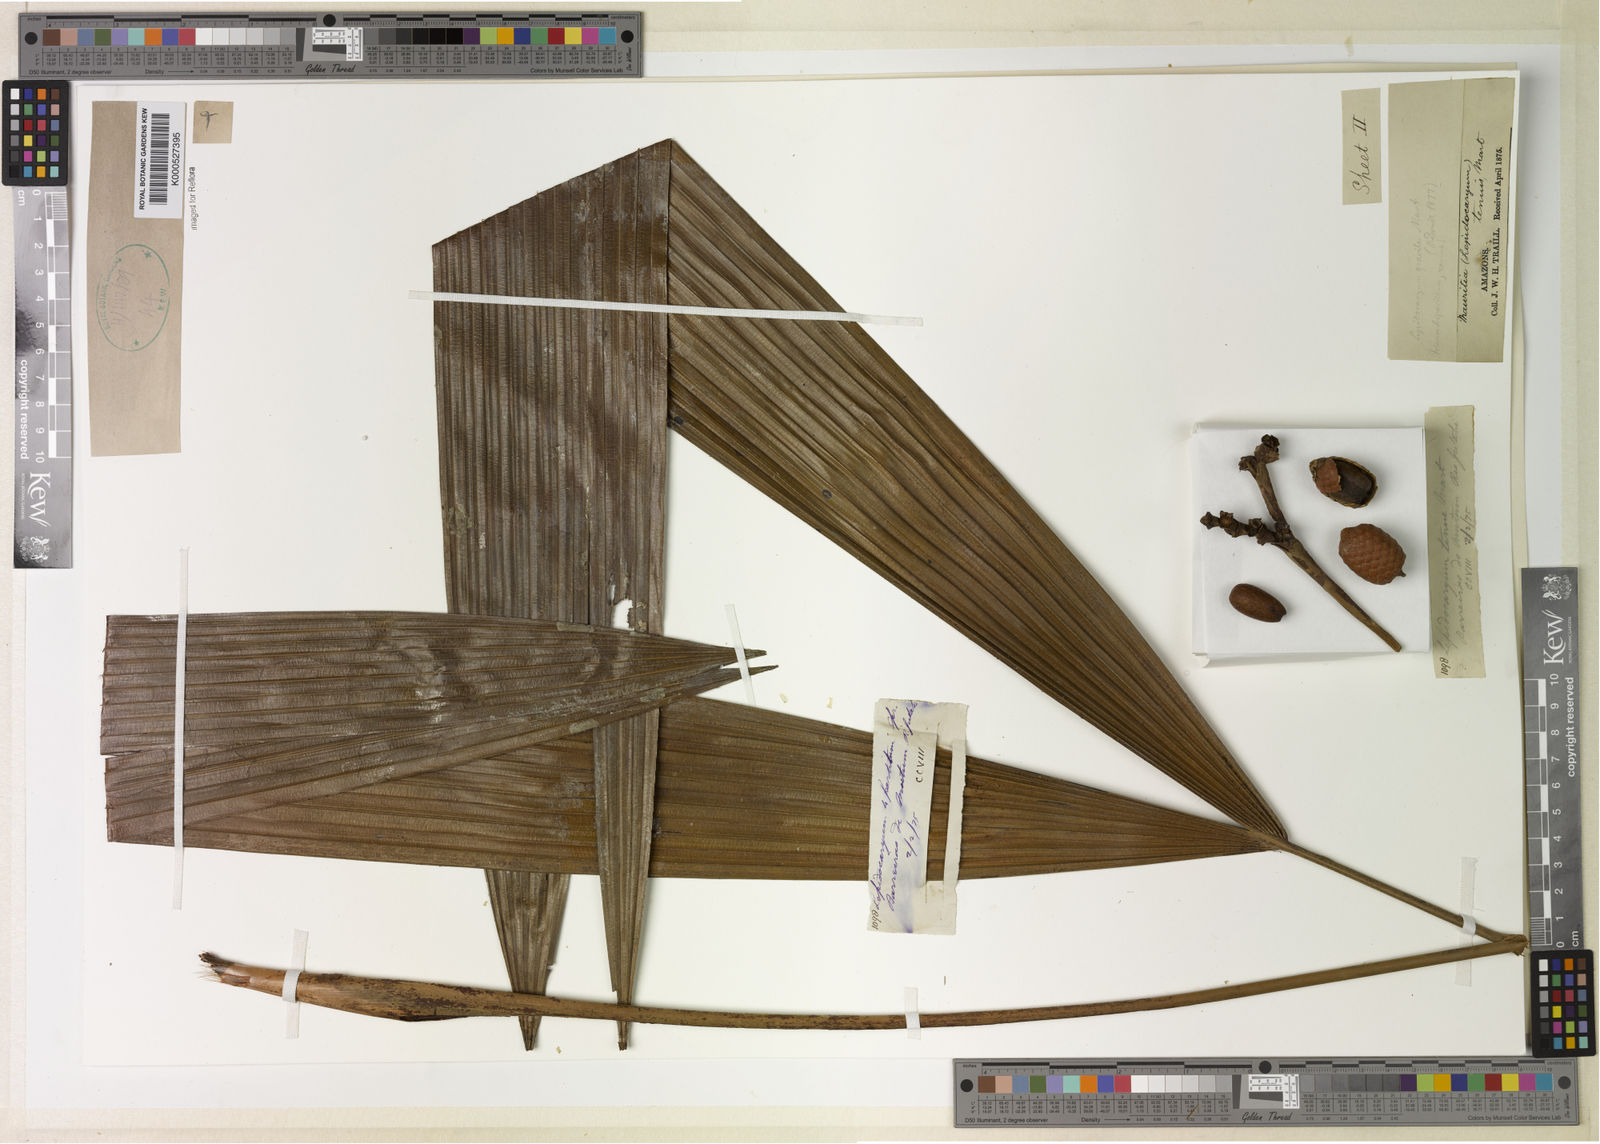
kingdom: Plantae
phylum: Tracheophyta
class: Liliopsida
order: Arecales
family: Arecaceae
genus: Lepidocaryum
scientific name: Lepidocaryum tenue
